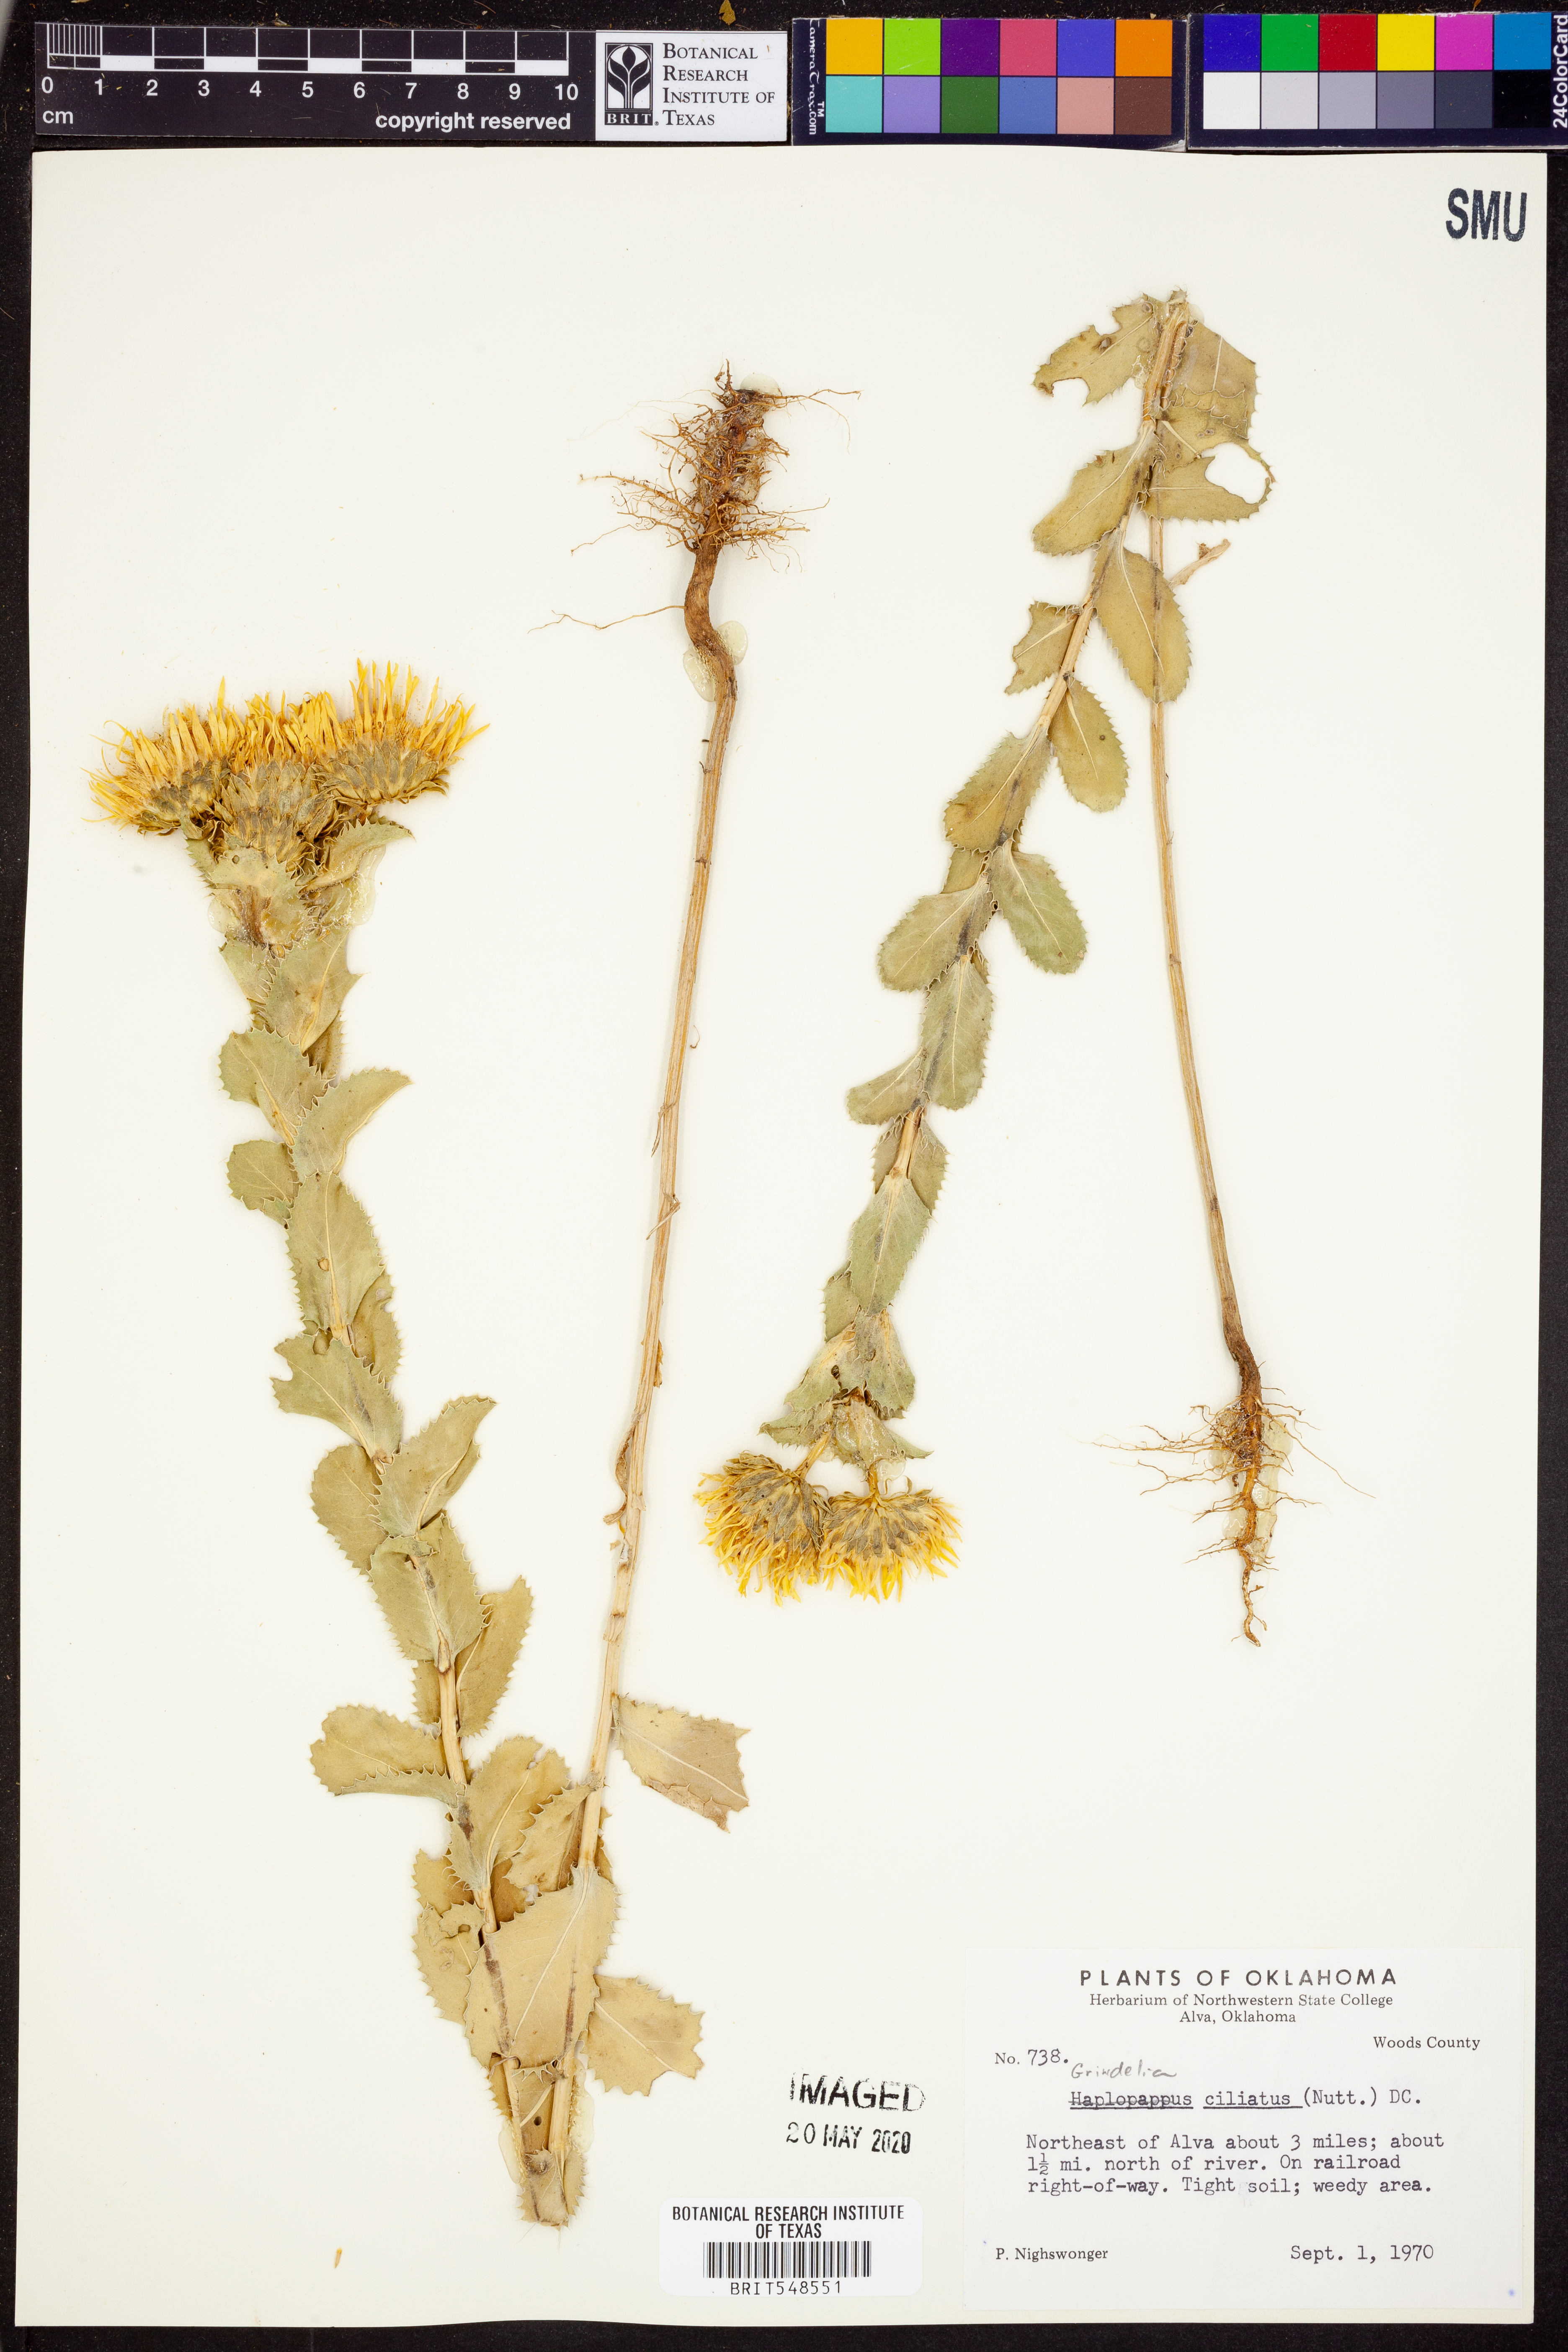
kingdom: Plantae
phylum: Tracheophyta
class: Magnoliopsida
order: Asterales
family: Asteraceae
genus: Grindelia
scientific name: Grindelia ciliata
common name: Goldenweed
